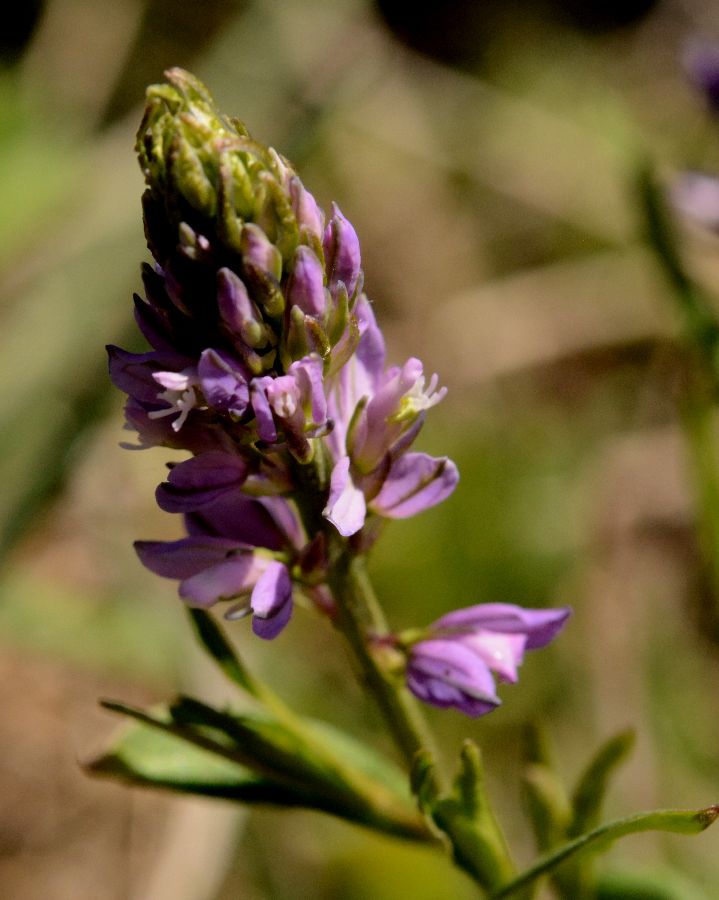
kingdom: Plantae
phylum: Tracheophyta
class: Magnoliopsida
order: Fabales
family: Polygalaceae
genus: Polygala
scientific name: Polygala comosa
